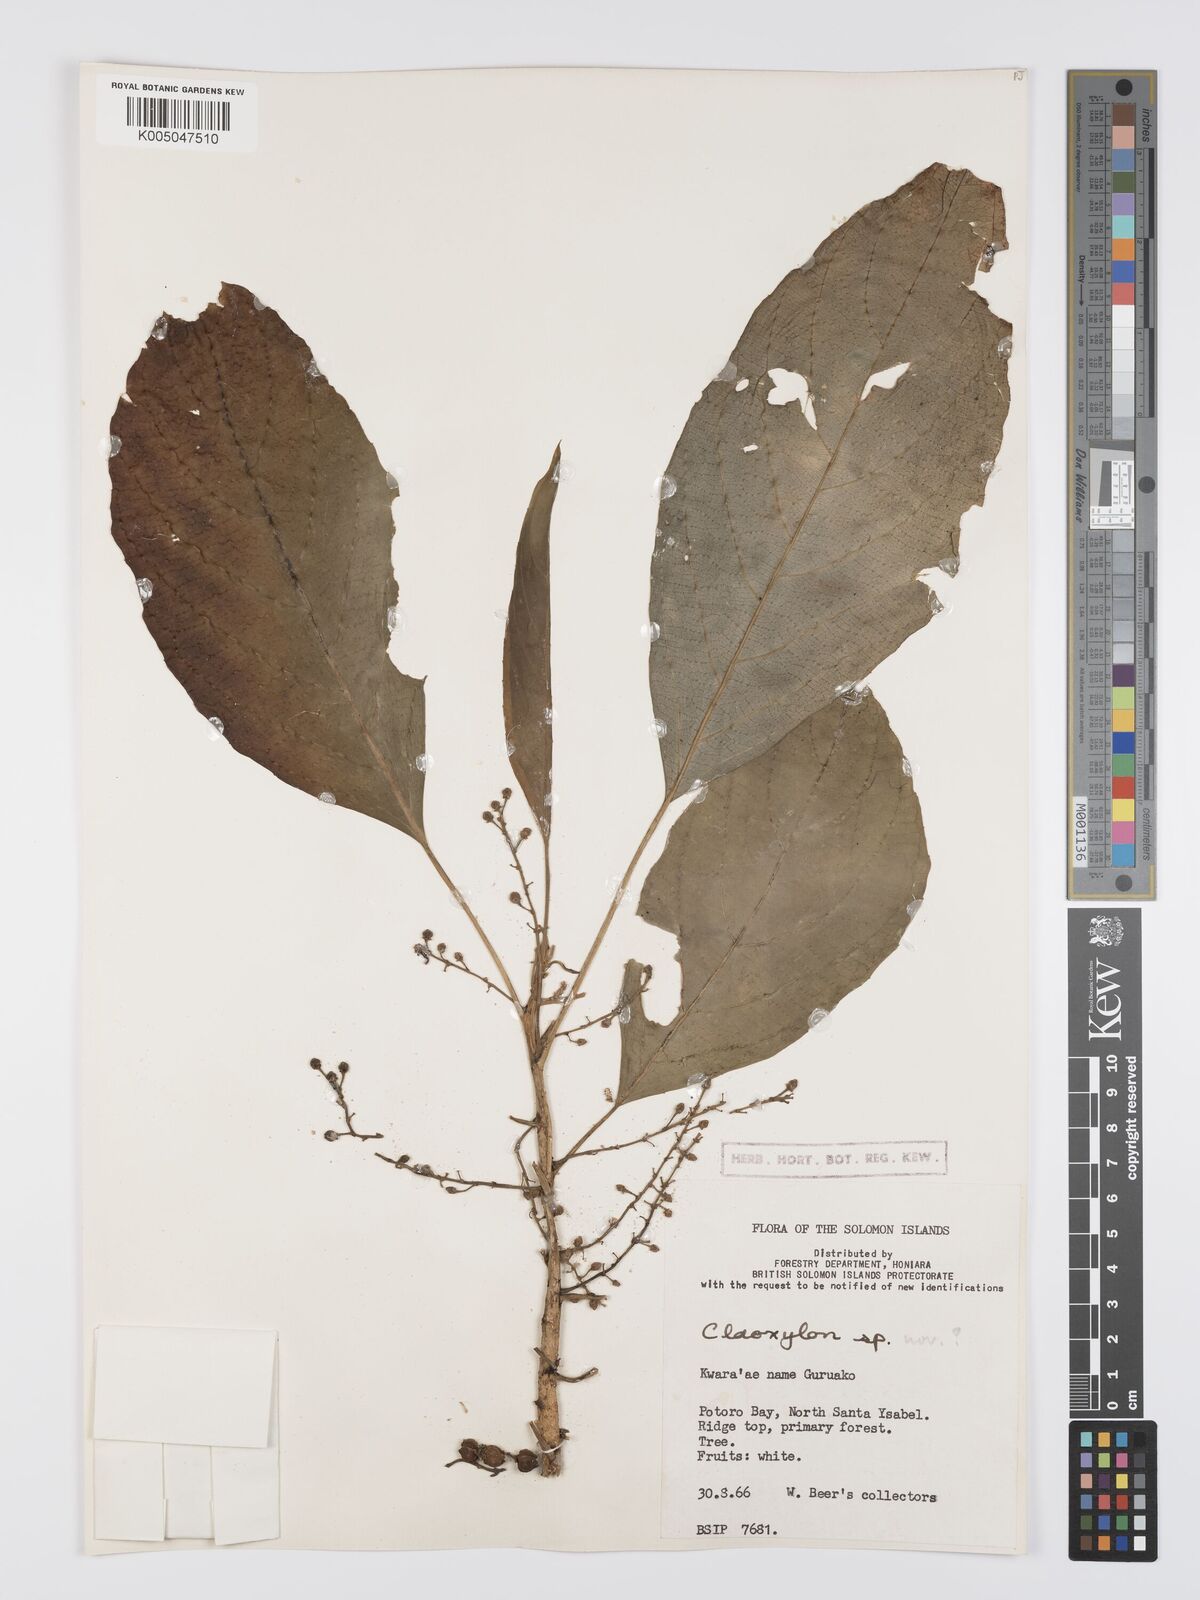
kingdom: Plantae
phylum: Tracheophyta
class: Magnoliopsida
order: Malpighiales
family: Euphorbiaceae
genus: Claoxylon
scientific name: Claoxylon carolinianum
